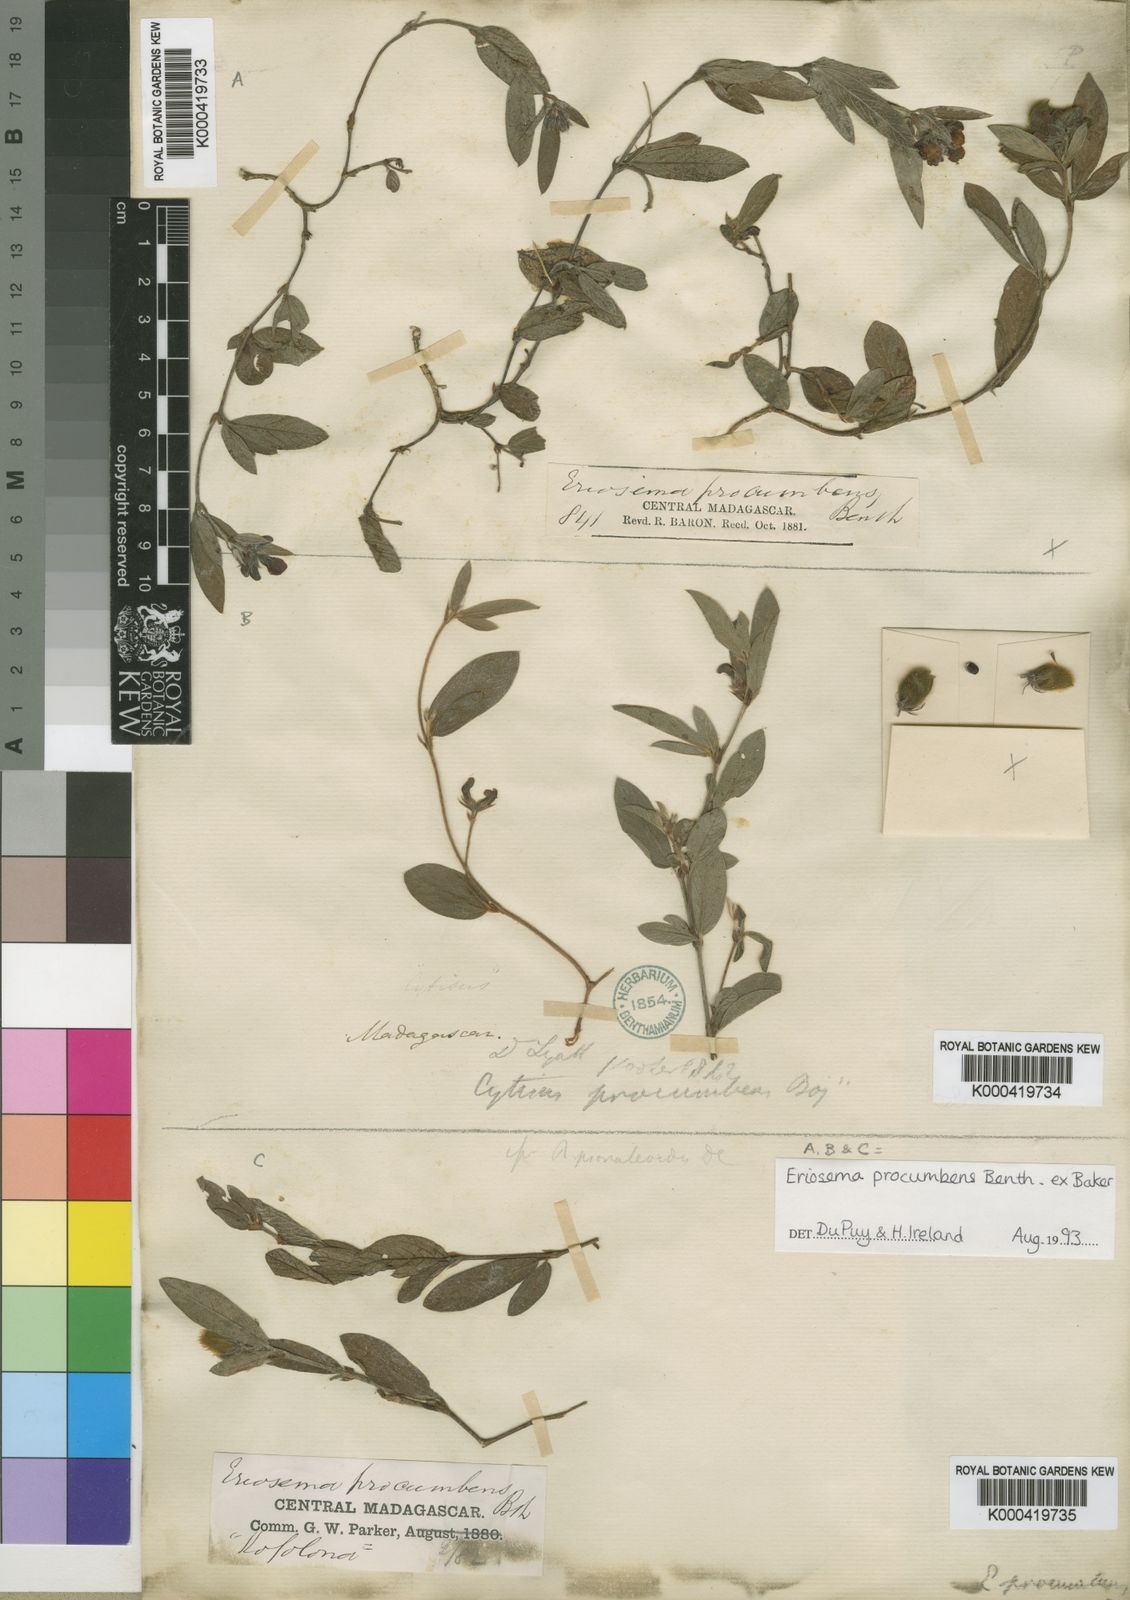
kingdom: Plantae
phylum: Tracheophyta
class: Magnoliopsida
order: Fabales
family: Fabaceae
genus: Eriosema
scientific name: Eriosema procumbens
